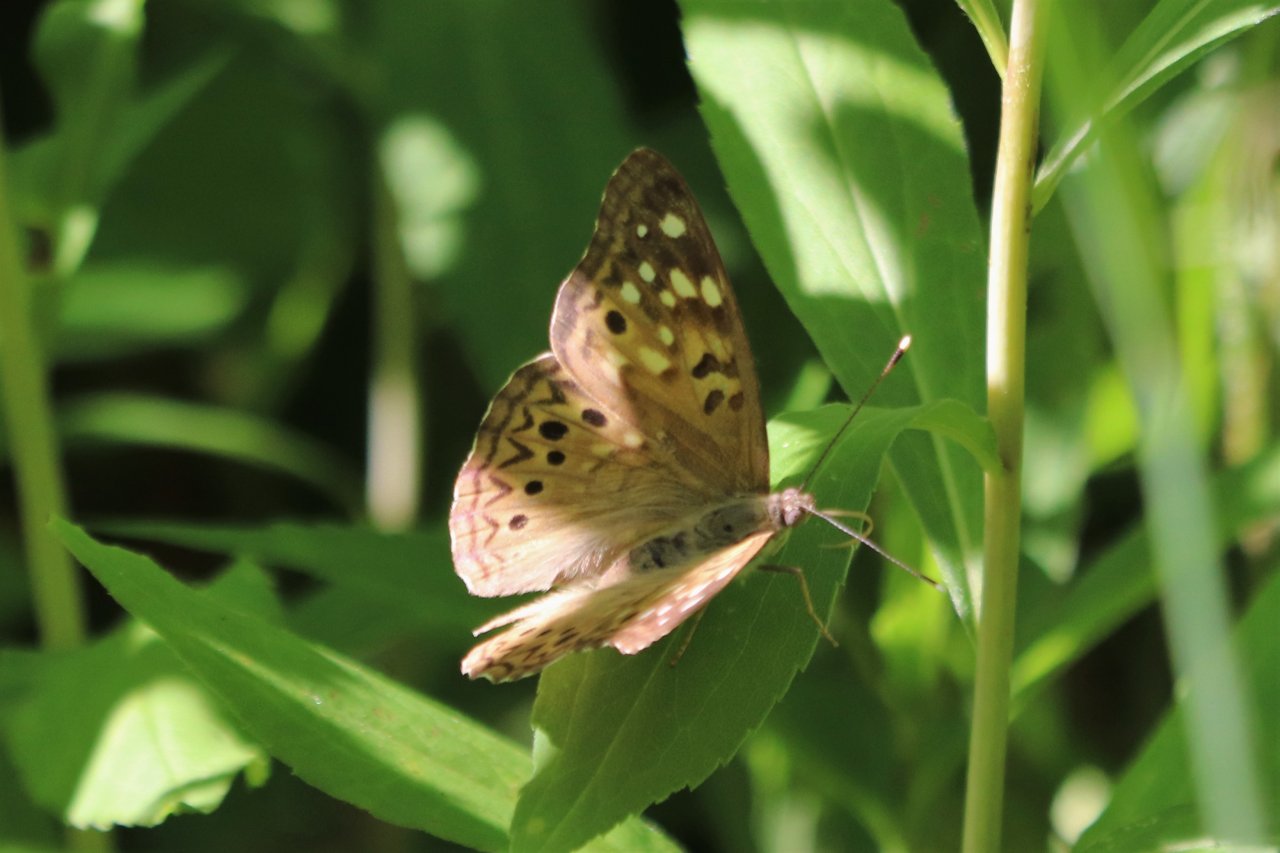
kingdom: Animalia
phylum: Arthropoda
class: Insecta
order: Lepidoptera
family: Nymphalidae
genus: Asterocampa
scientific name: Asterocampa celtis
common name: Hackberry Emperor
